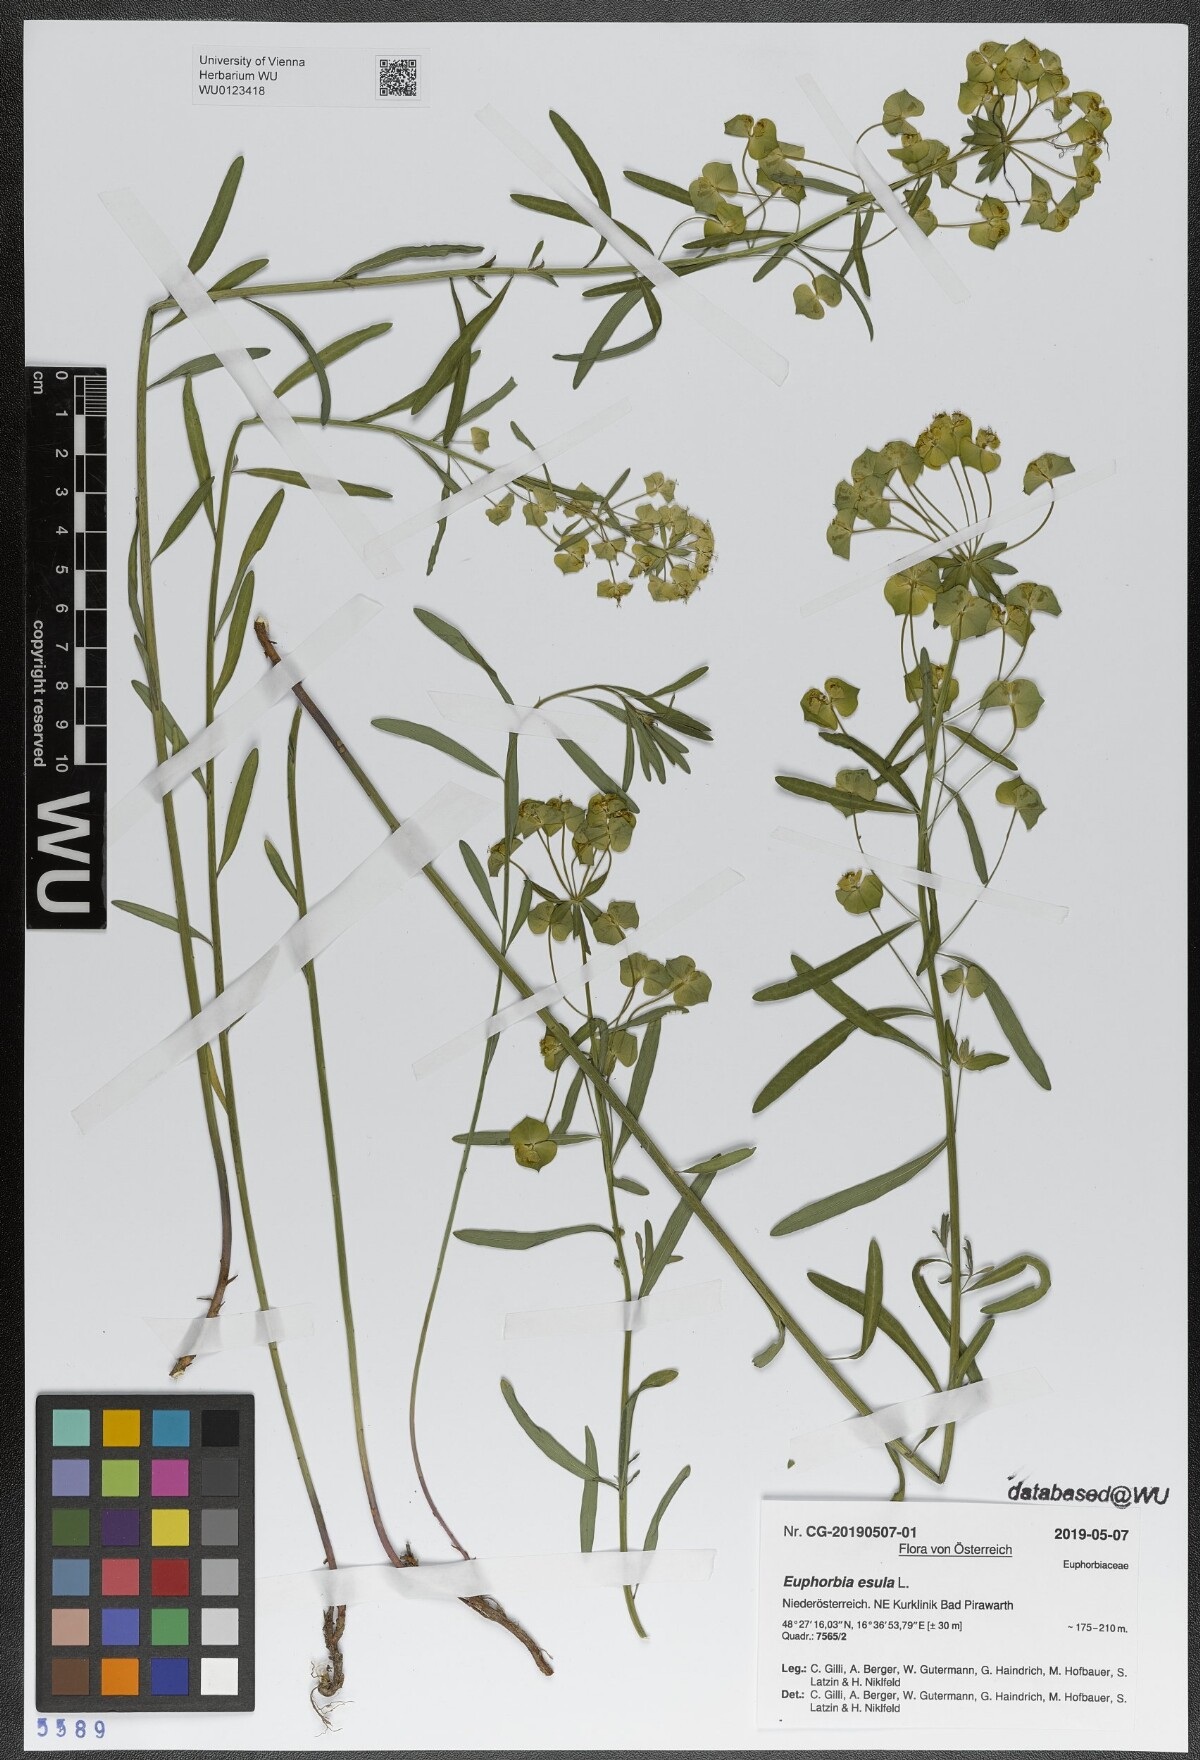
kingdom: Plantae
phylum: Tracheophyta
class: Magnoliopsida
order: Malpighiales
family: Euphorbiaceae
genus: Euphorbia
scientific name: Euphorbia esula
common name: Leafy spurge
